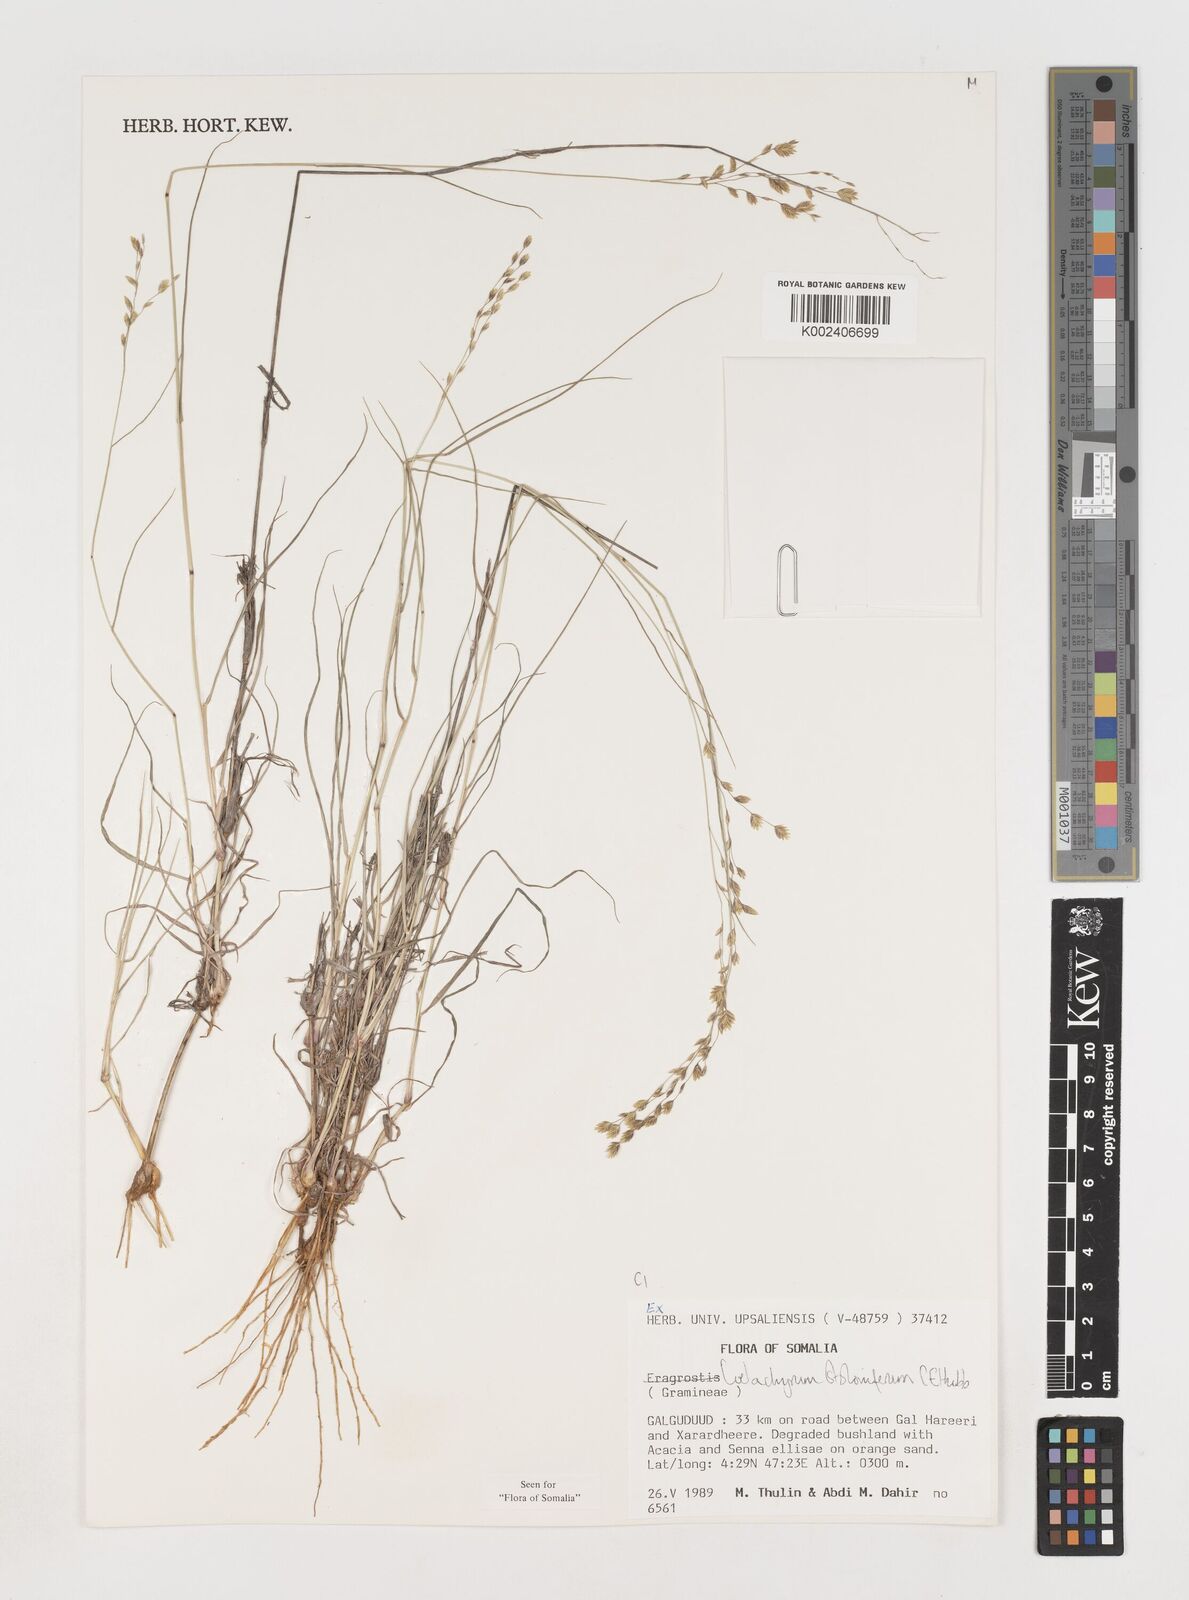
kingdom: Plantae
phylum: Tracheophyta
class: Liliopsida
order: Poales
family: Poaceae
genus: Coelachyrum
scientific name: Coelachyrum piercei
